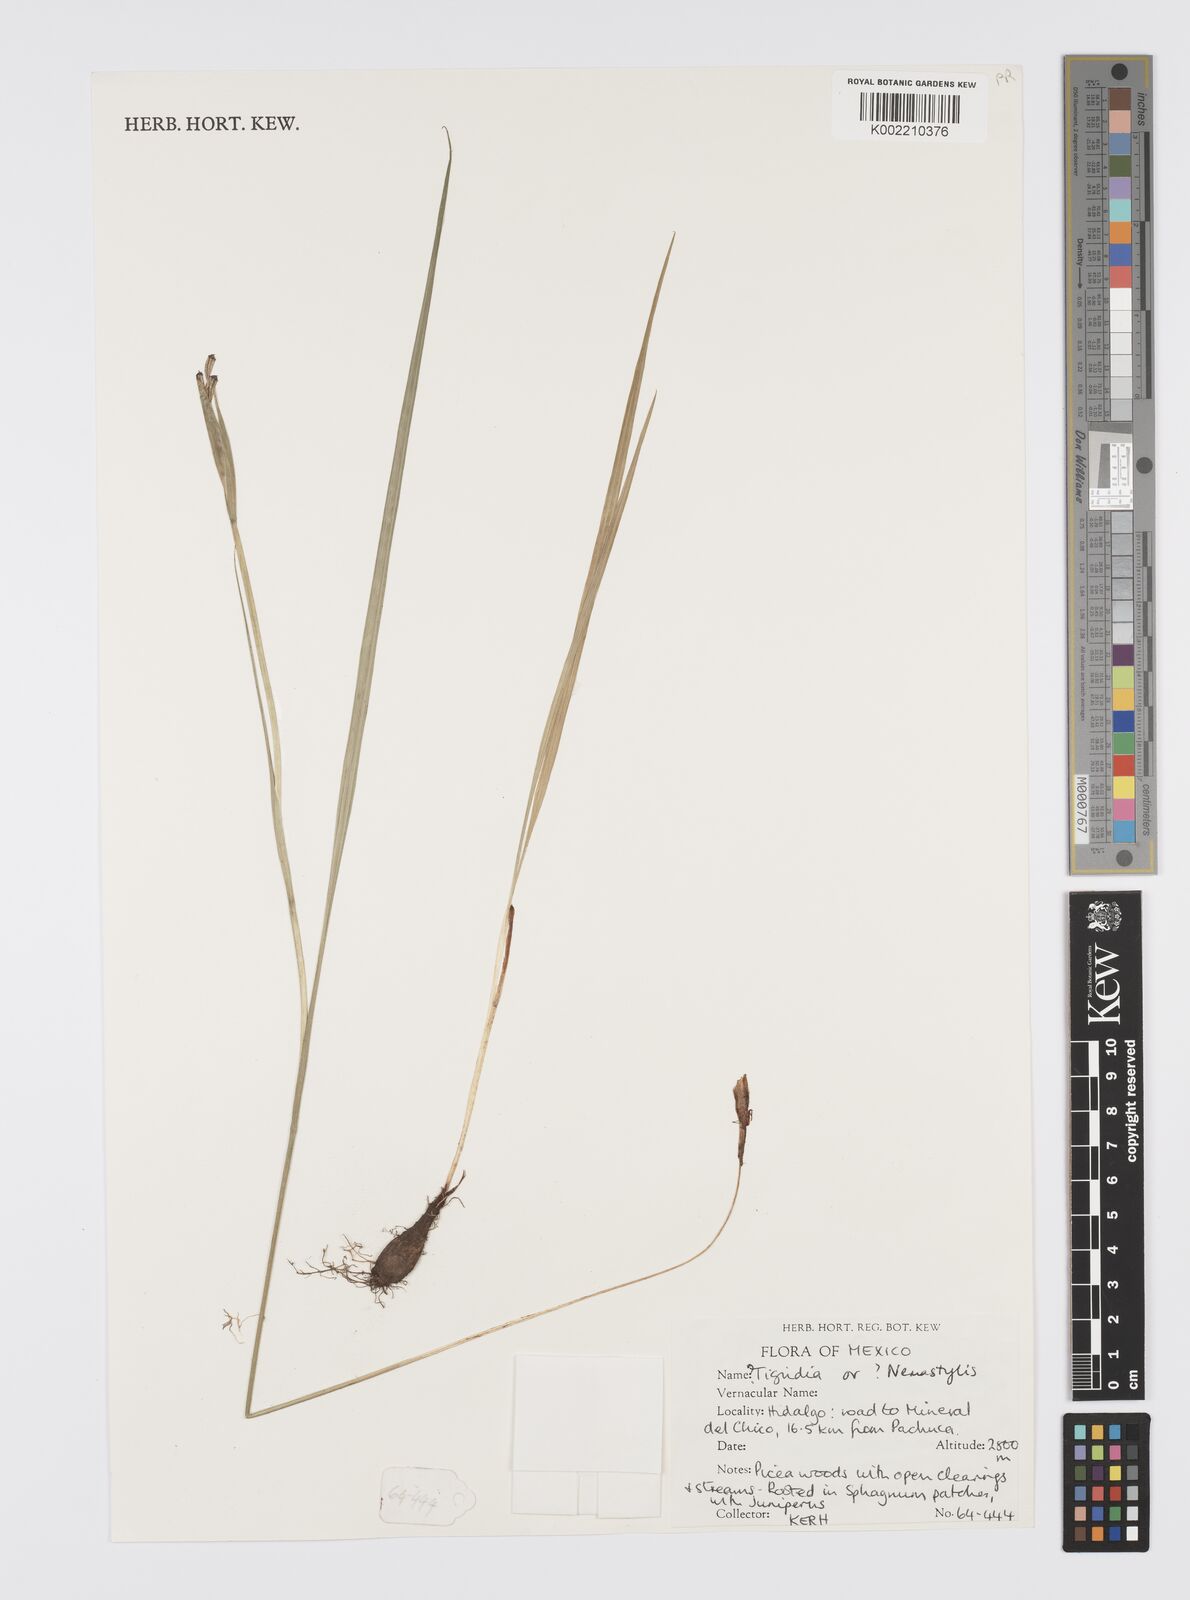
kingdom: Plantae
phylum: Tracheophyta
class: Liliopsida
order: Asparagales
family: Iridaceae
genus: Tigridia
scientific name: Tigridia
